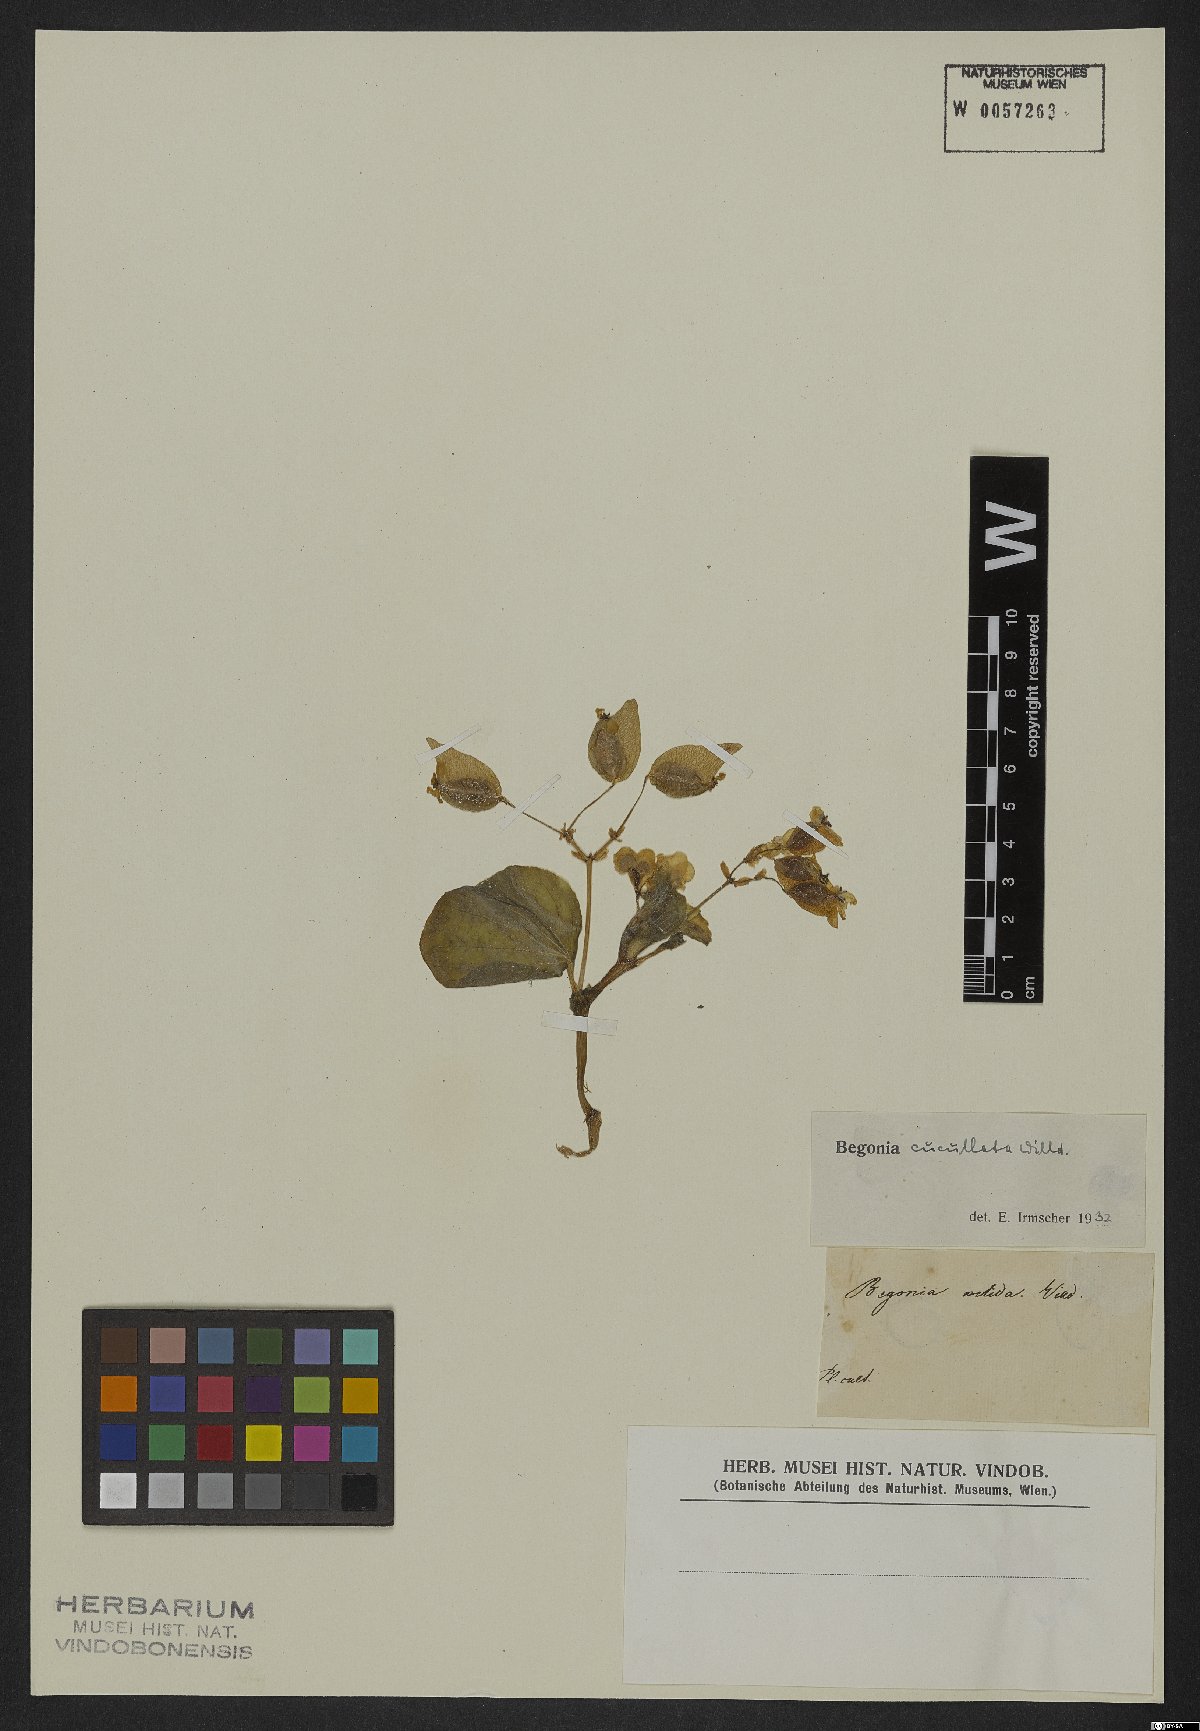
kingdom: Plantae
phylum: Tracheophyta
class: Magnoliopsida
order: Cucurbitales
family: Begoniaceae
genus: Begonia
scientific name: Begonia cucullata
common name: Clubbed begonia
